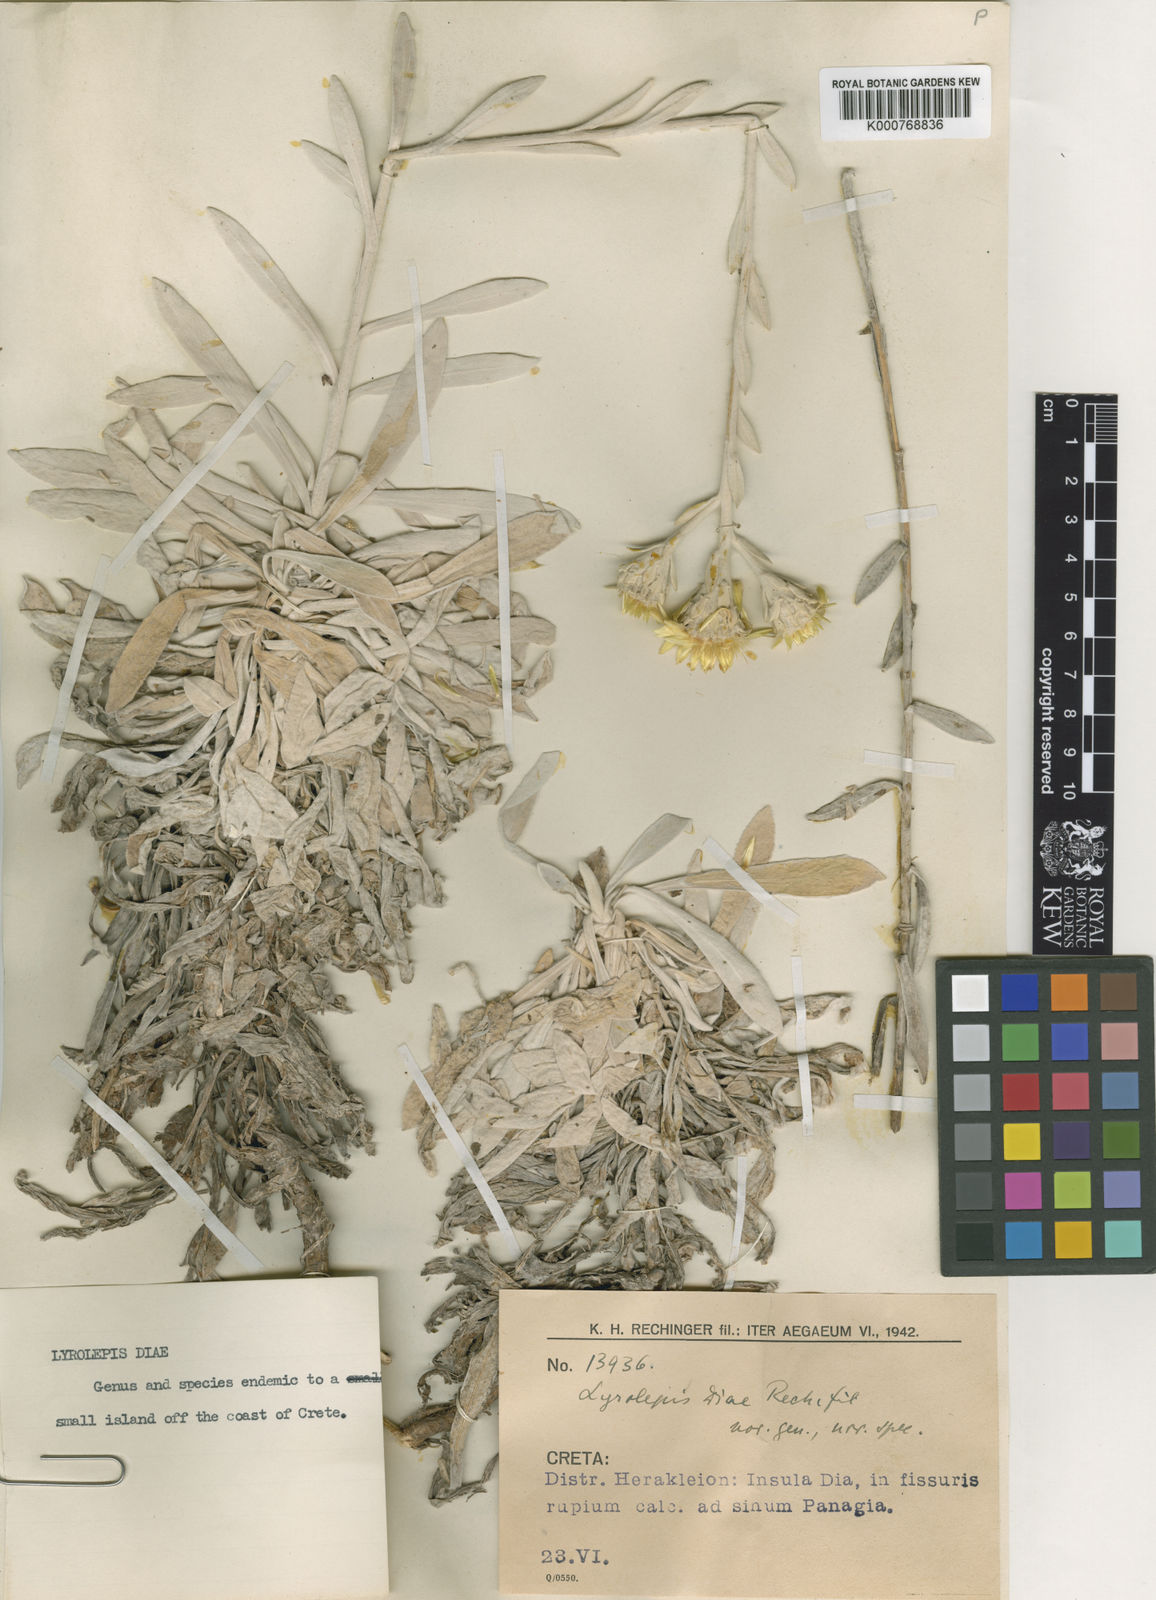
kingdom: Plantae
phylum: Tracheophyta
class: Magnoliopsida
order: Asterales
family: Asteraceae
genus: Carlina
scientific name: Carlina
